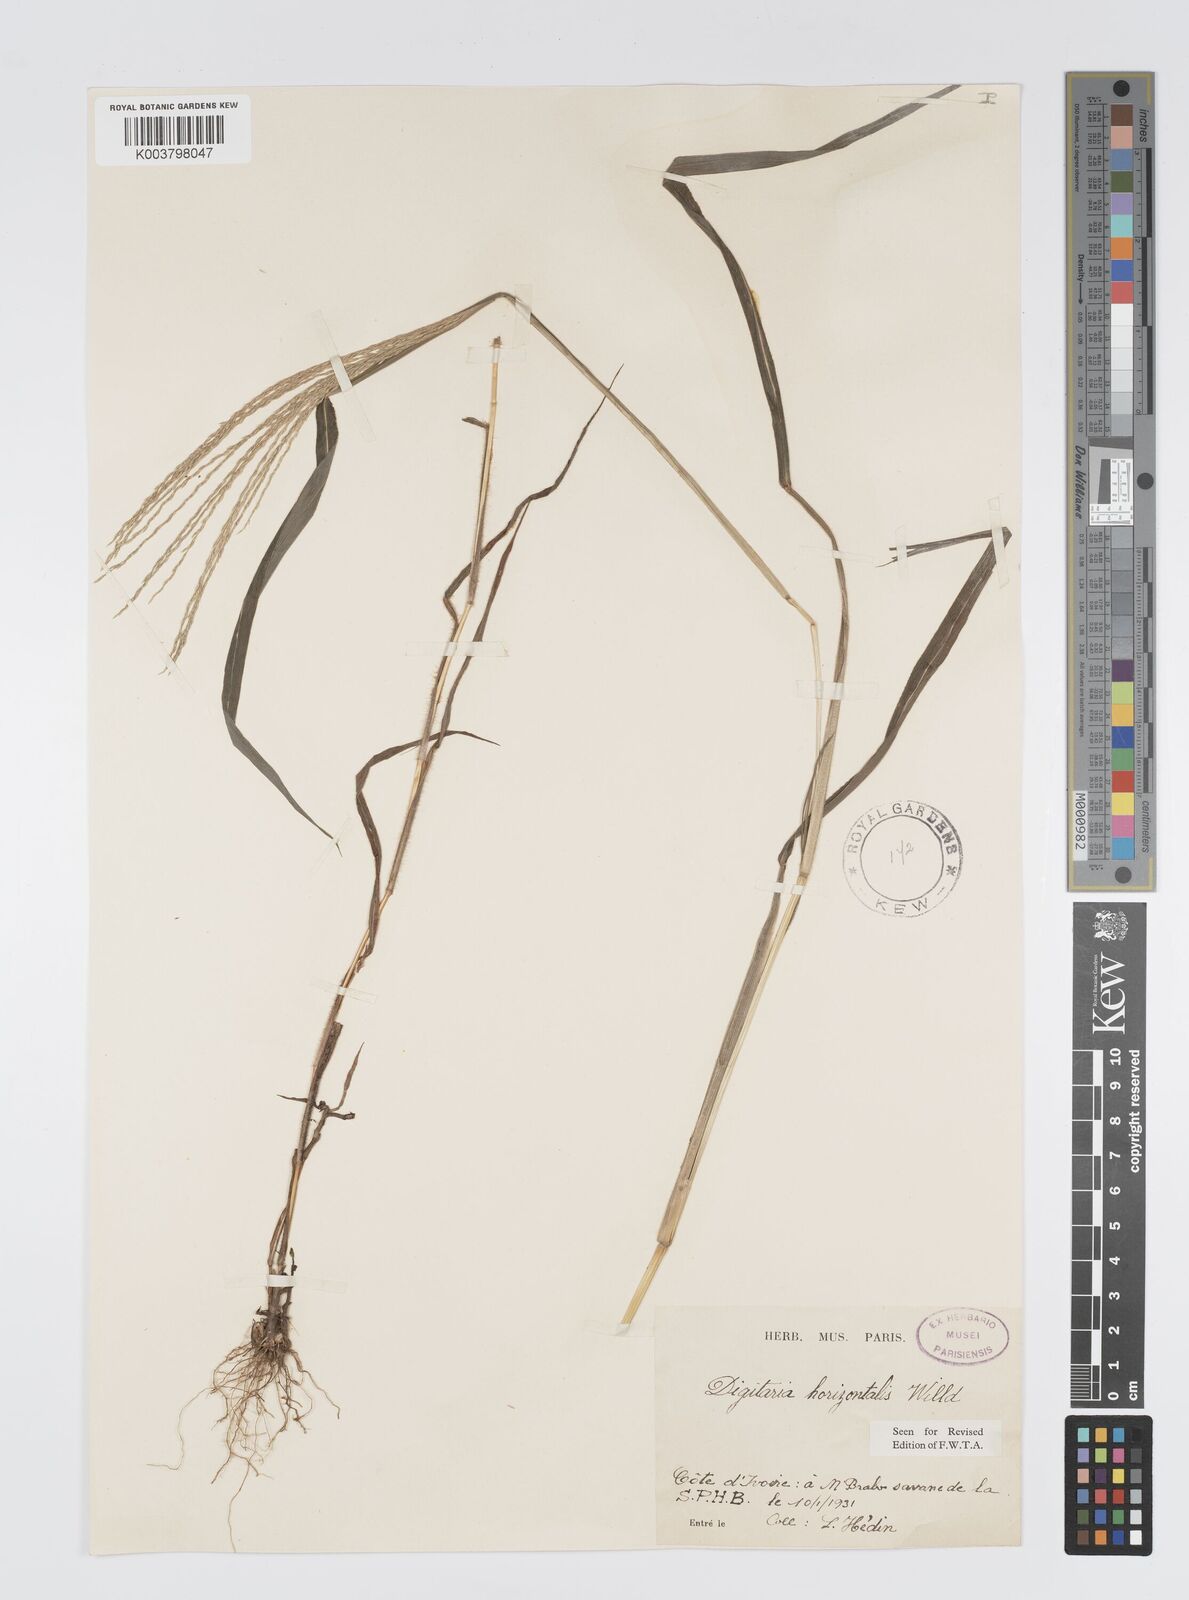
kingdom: Plantae
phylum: Tracheophyta
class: Liliopsida
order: Poales
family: Poaceae
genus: Digitaria
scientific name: Digitaria horizontalis
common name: Jamaican crabgrass
